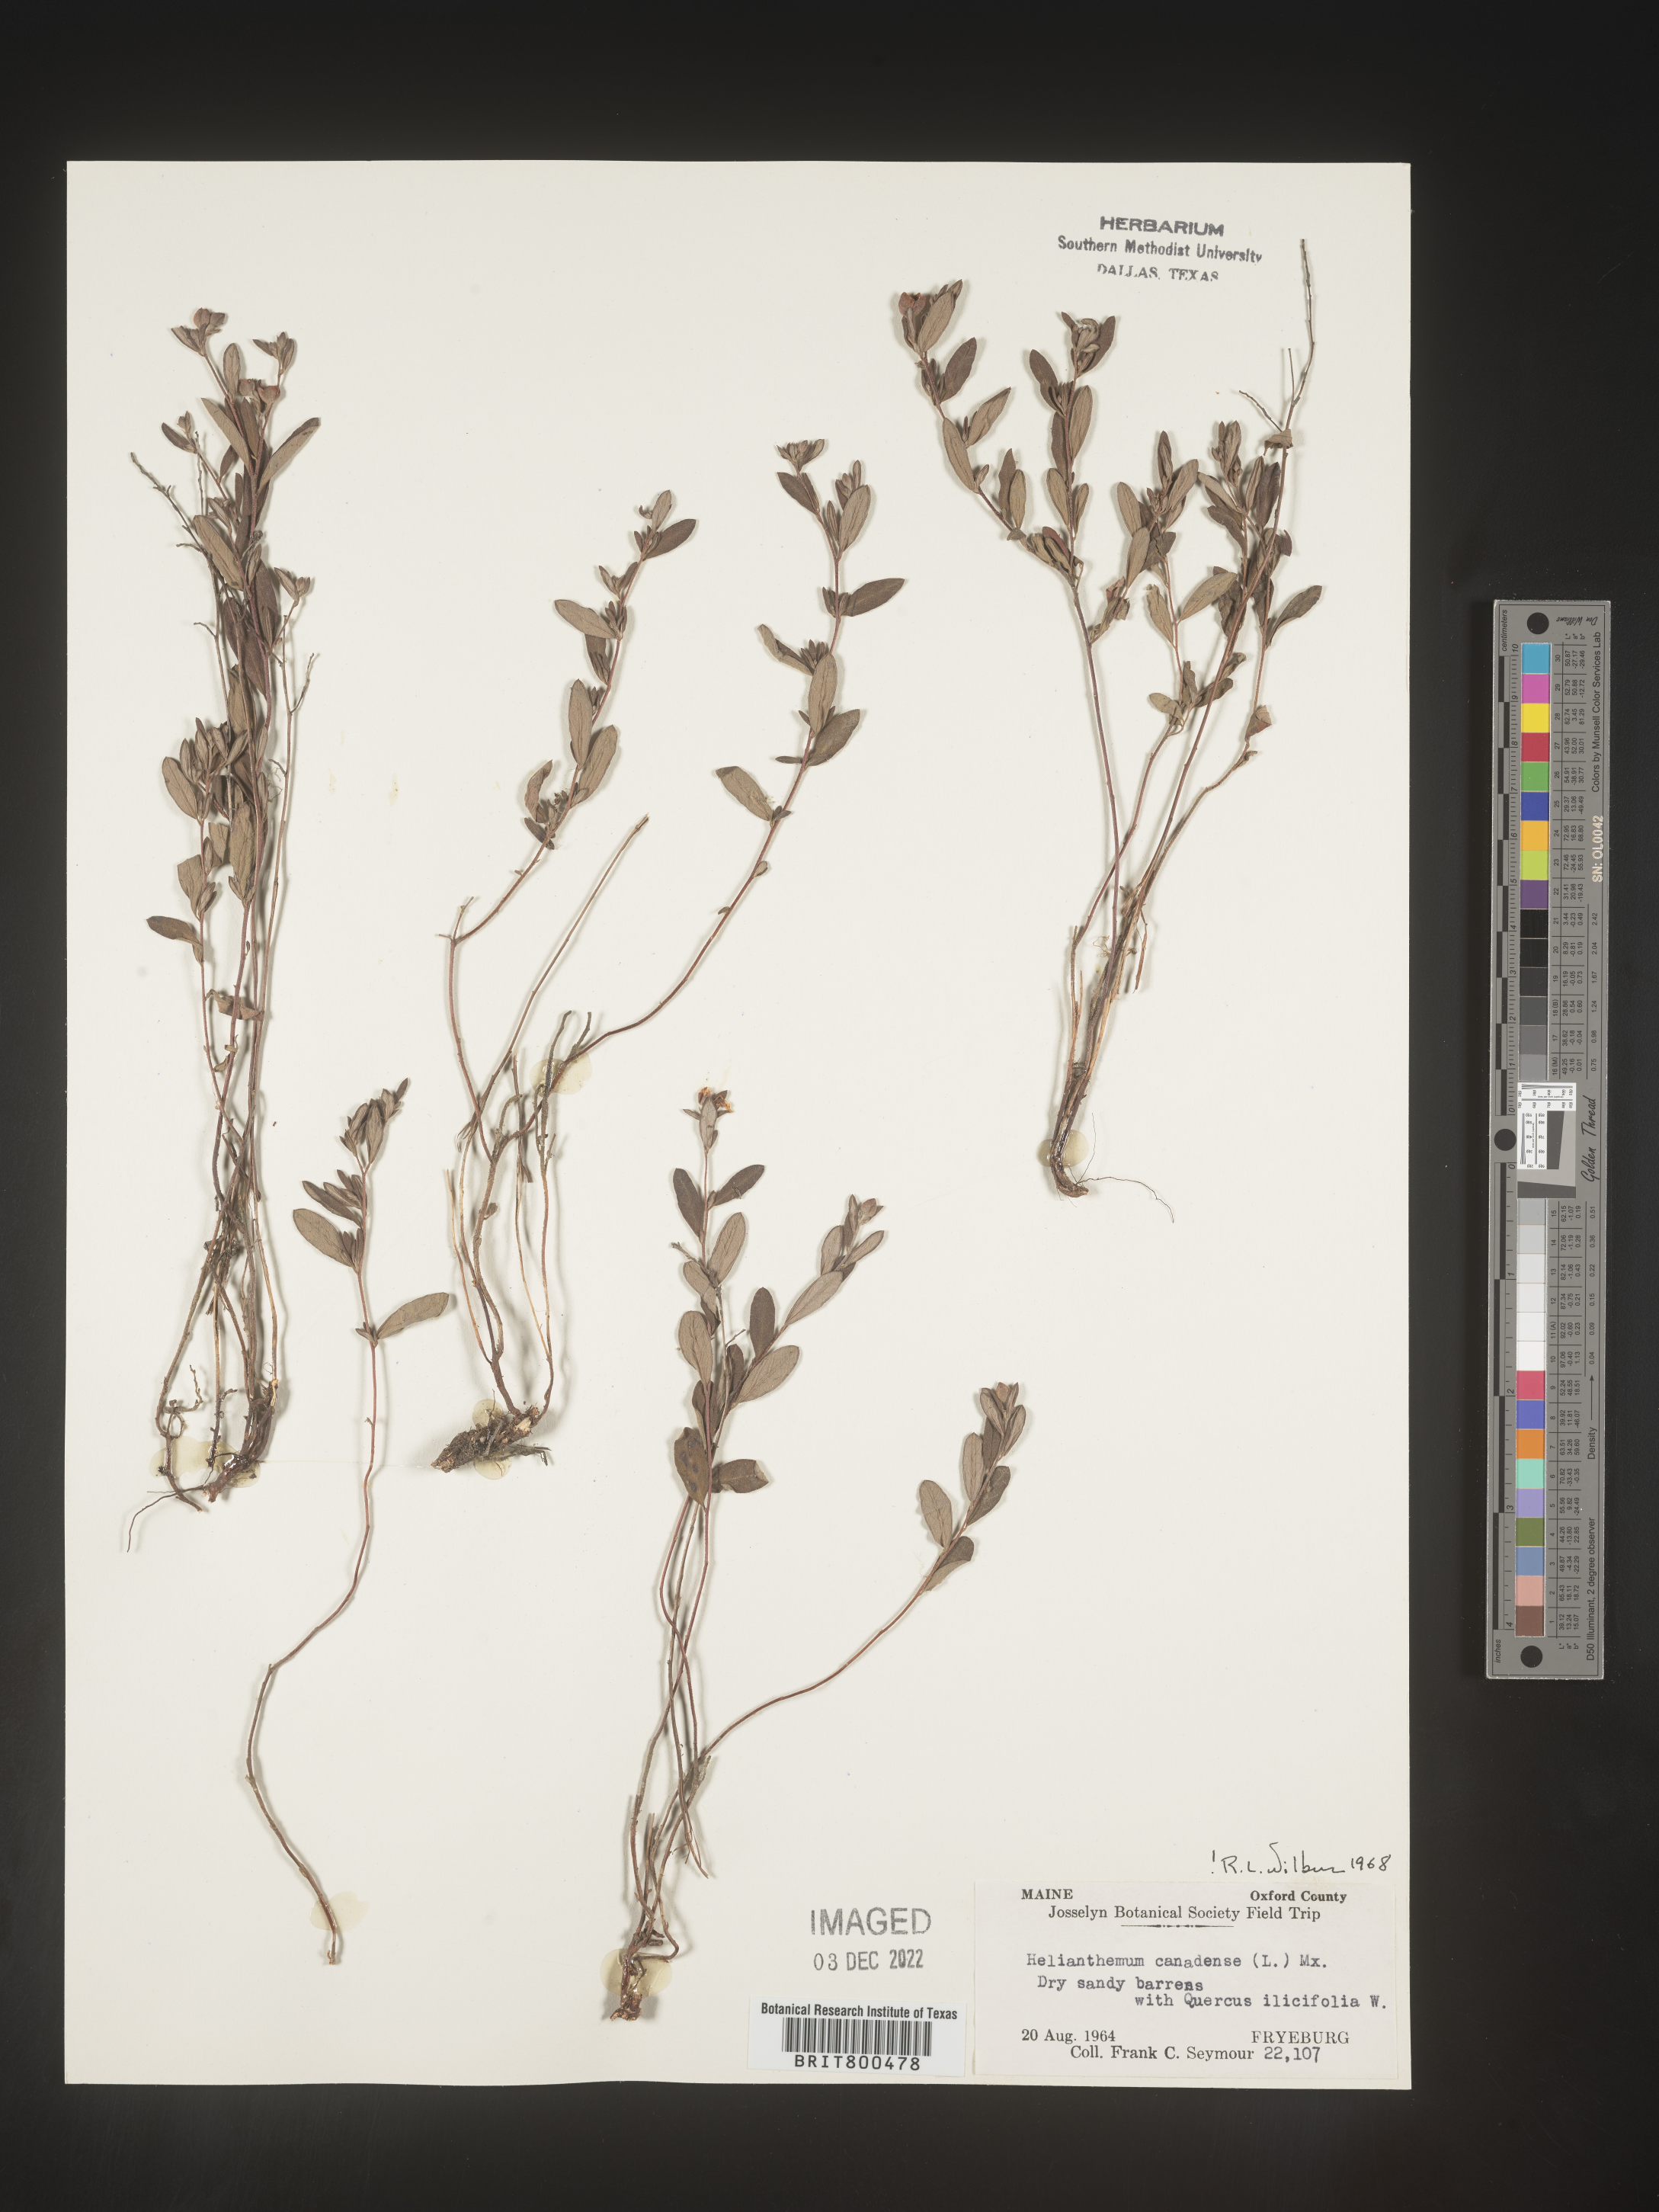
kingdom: Plantae
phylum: Tracheophyta
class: Magnoliopsida
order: Malvales
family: Cistaceae
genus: Crocanthemum
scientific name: Crocanthemum canadense
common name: Canada frostweed
